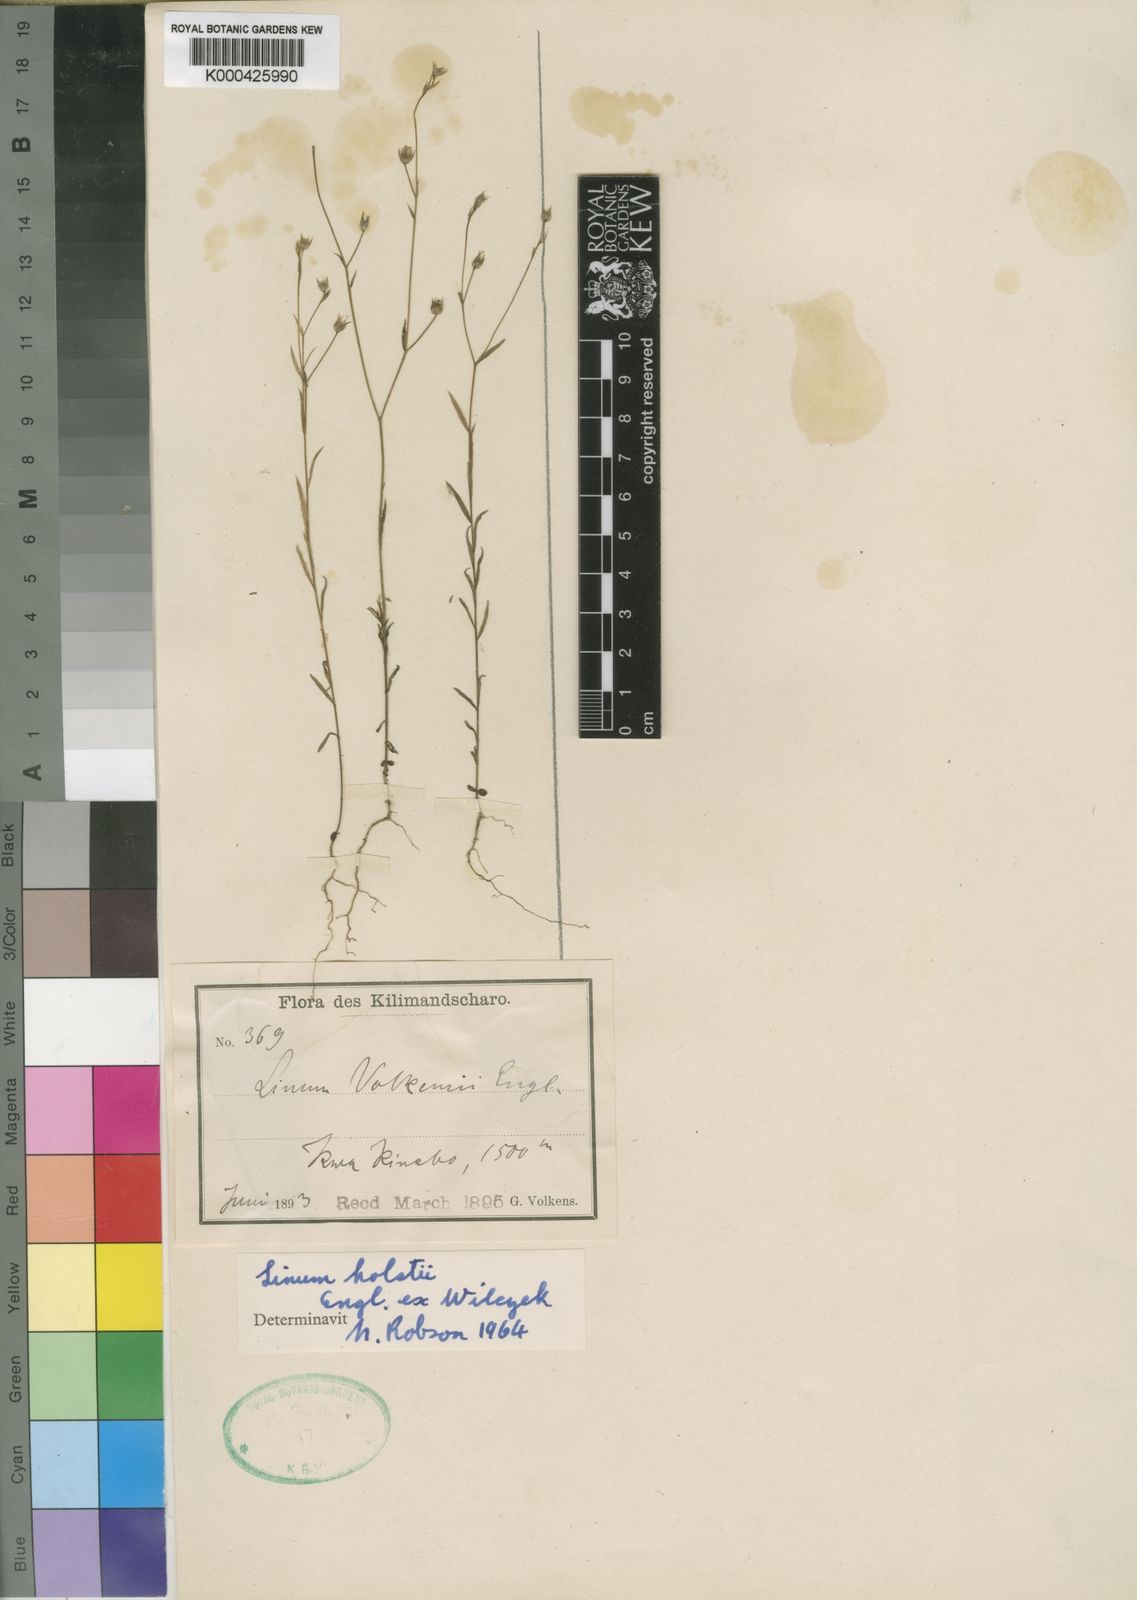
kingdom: Plantae
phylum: Tracheophyta
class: Magnoliopsida
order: Malpighiales
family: Linaceae
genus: Linum
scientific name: Linum volkensii
